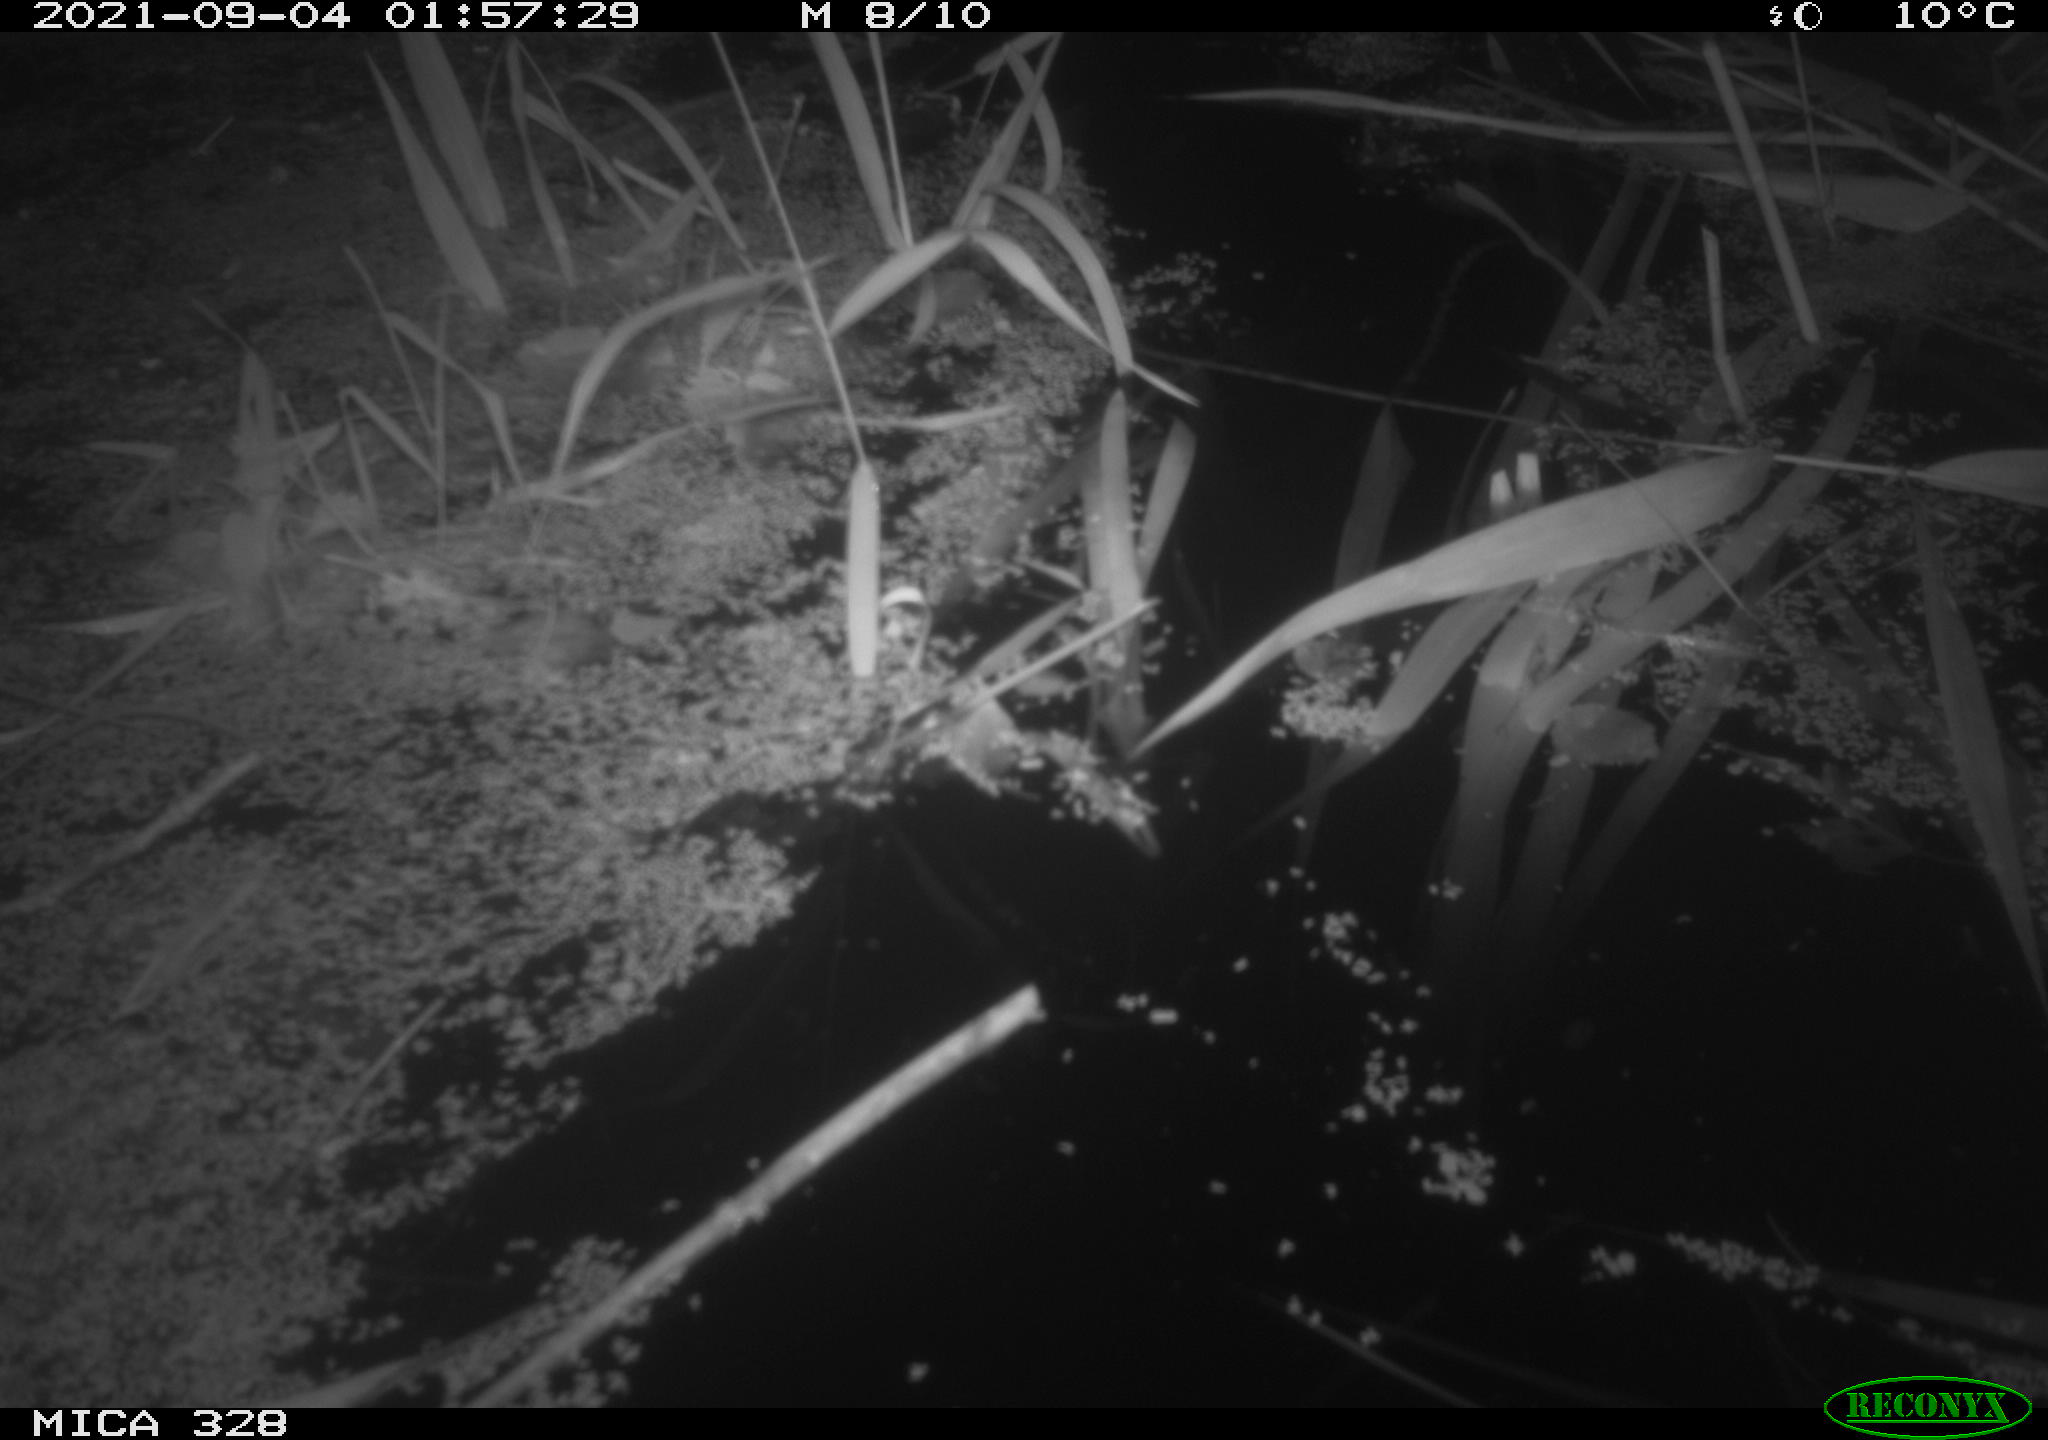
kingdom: Animalia
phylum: Chordata
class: Mammalia
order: Rodentia
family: Cricetidae
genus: Ondatra
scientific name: Ondatra zibethicus
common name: Muskrat
